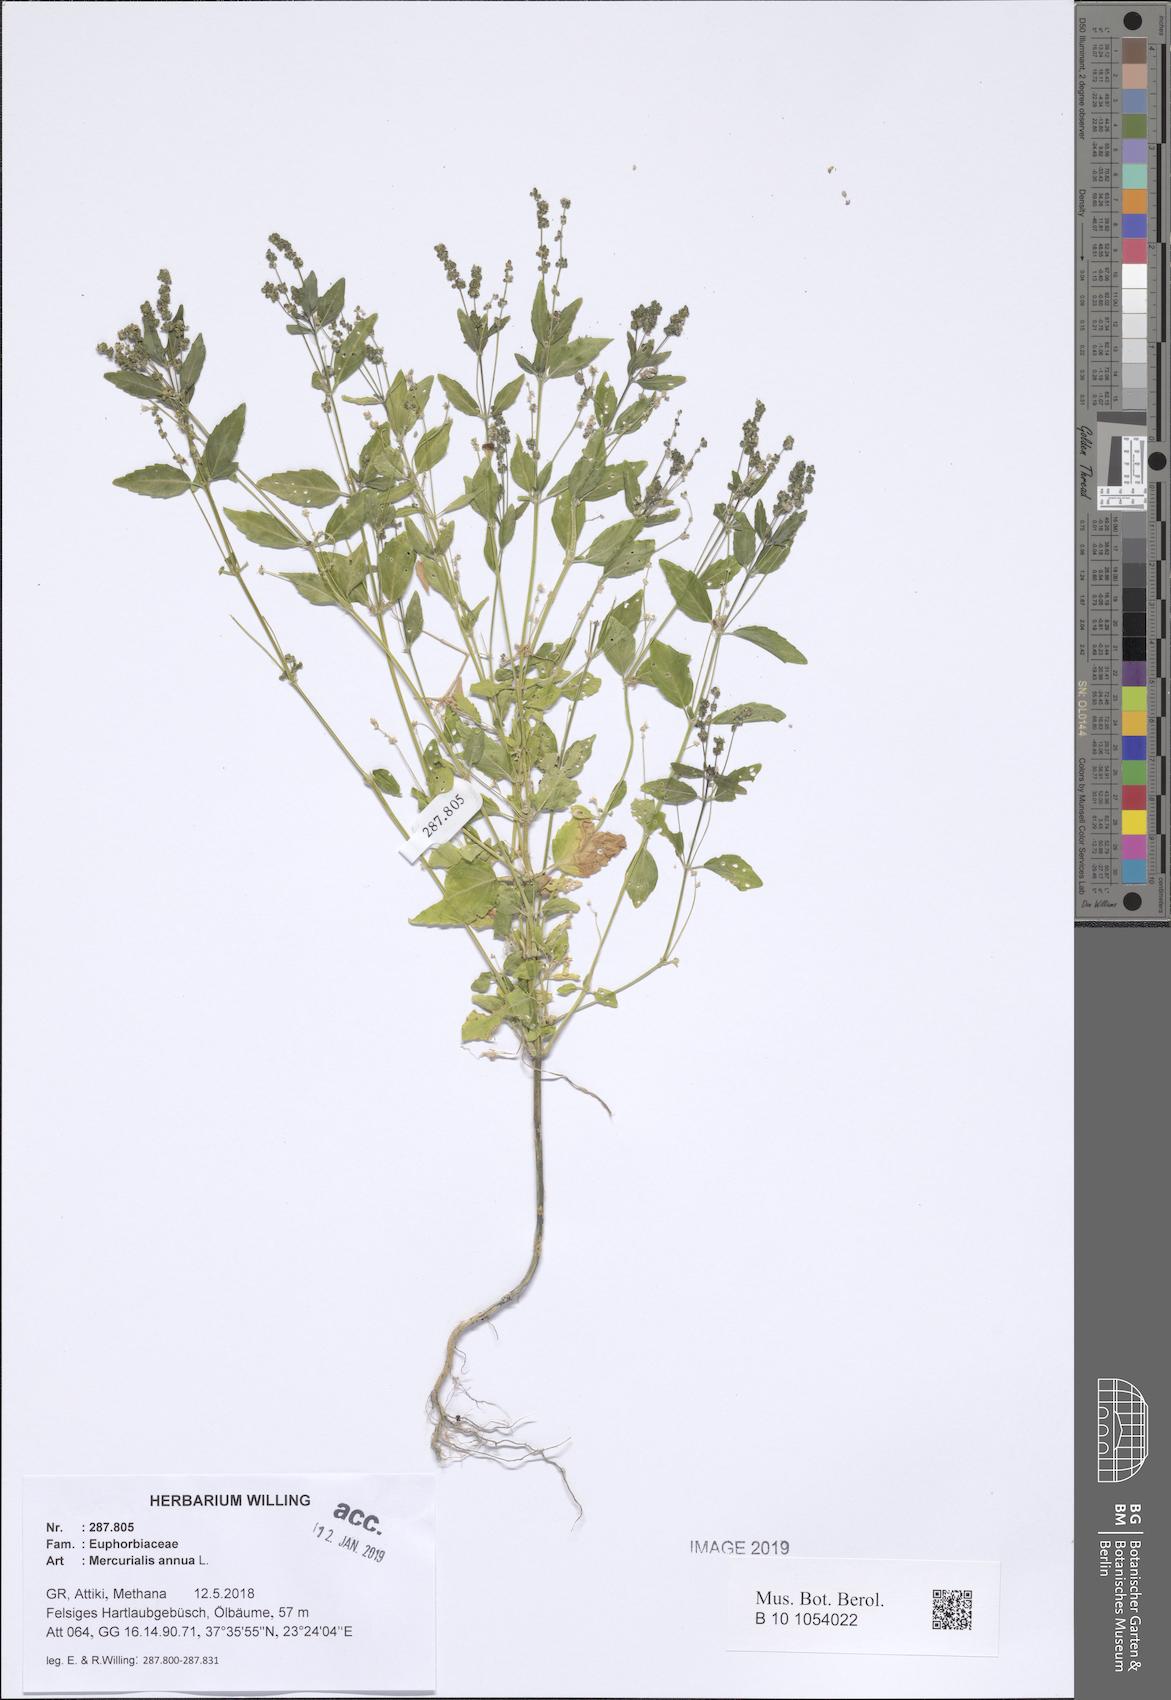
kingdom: Plantae
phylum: Tracheophyta
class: Magnoliopsida
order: Malpighiales
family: Euphorbiaceae
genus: Mercurialis
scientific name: Mercurialis annua
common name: Annual mercury
